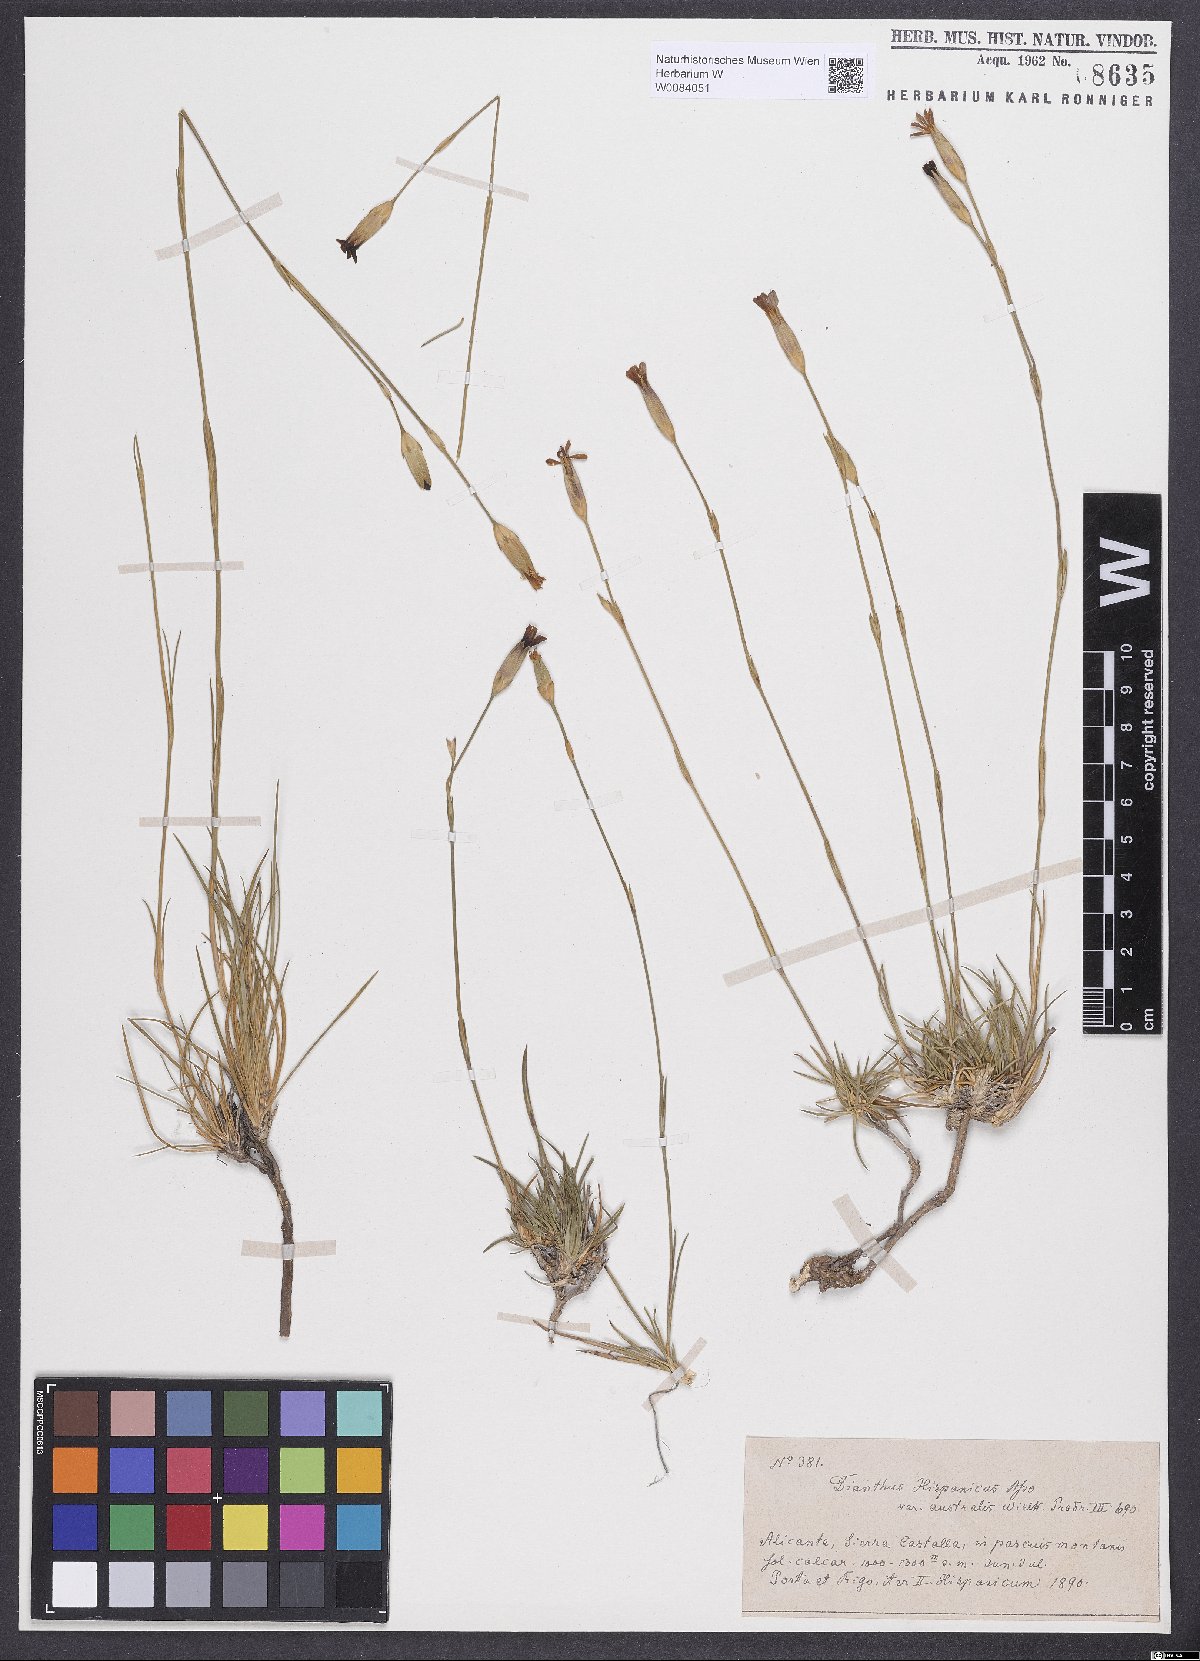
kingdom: Plantae
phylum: Tracheophyta
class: Magnoliopsida
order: Caryophyllales
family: Caryophyllaceae
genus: Dianthus
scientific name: Dianthus pungens
